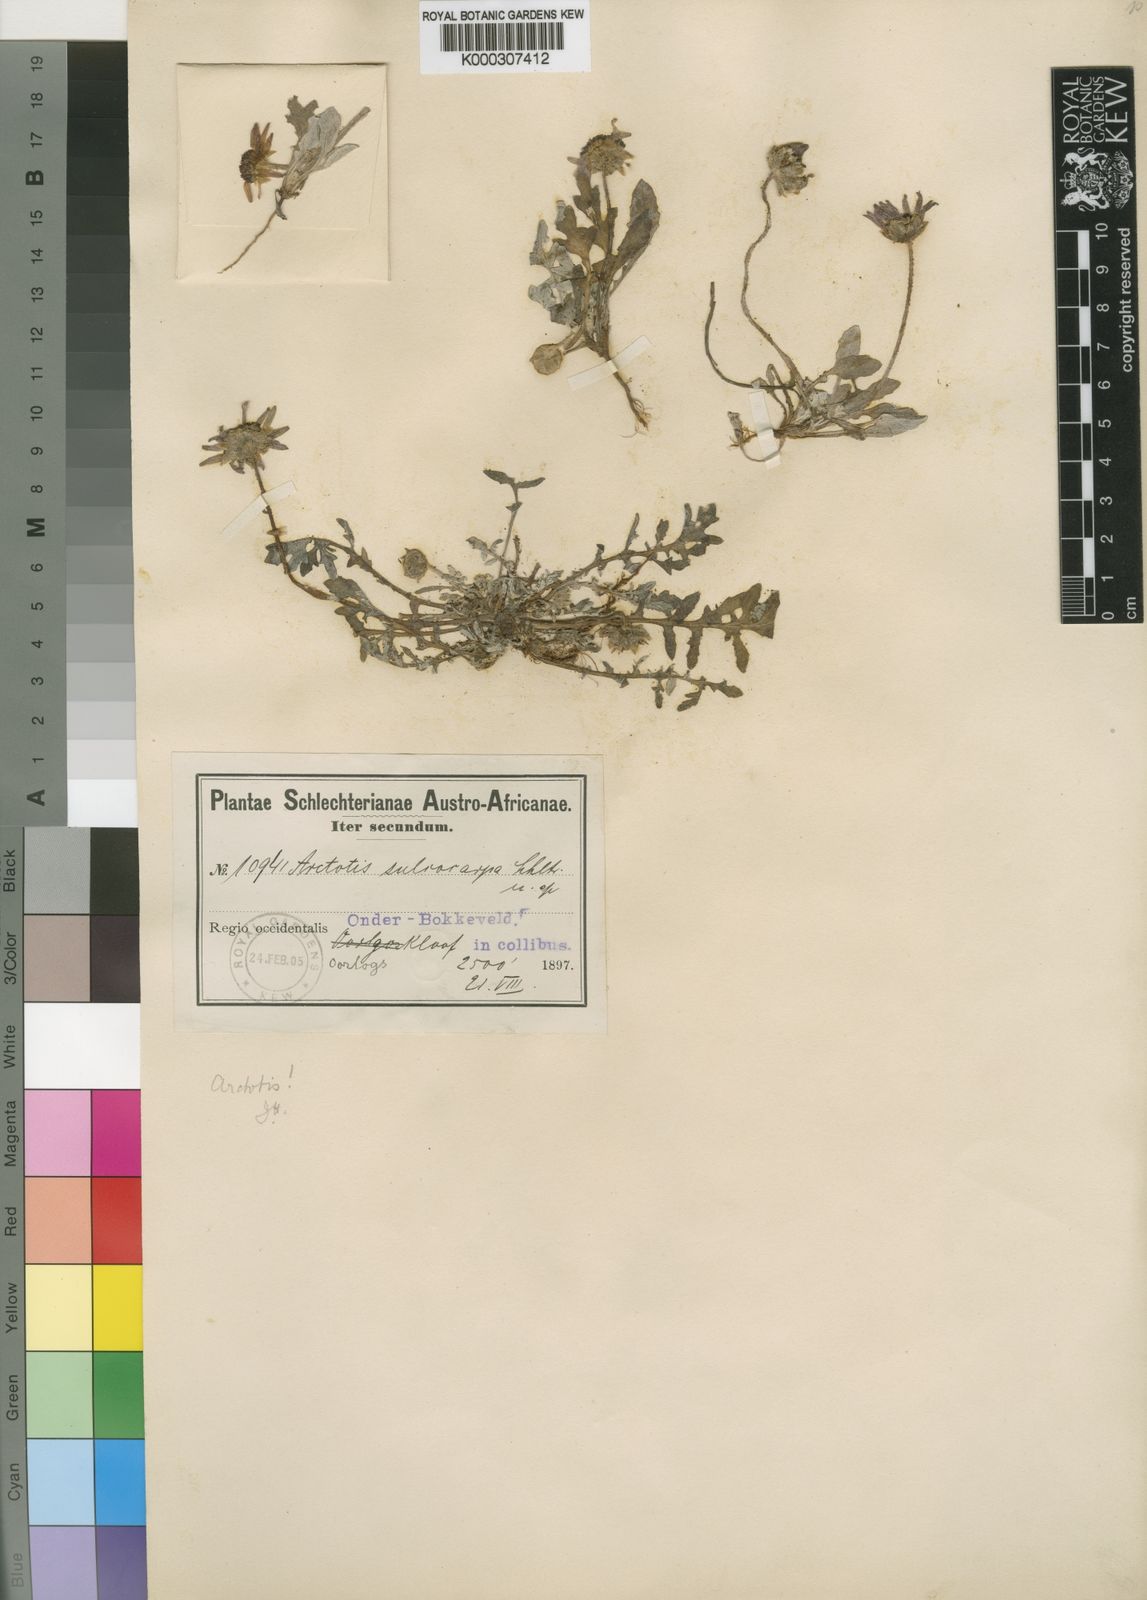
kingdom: Plantae
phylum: Tracheophyta
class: Magnoliopsida
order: Asterales
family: Asteraceae
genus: Arctotis
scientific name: Arctotis
